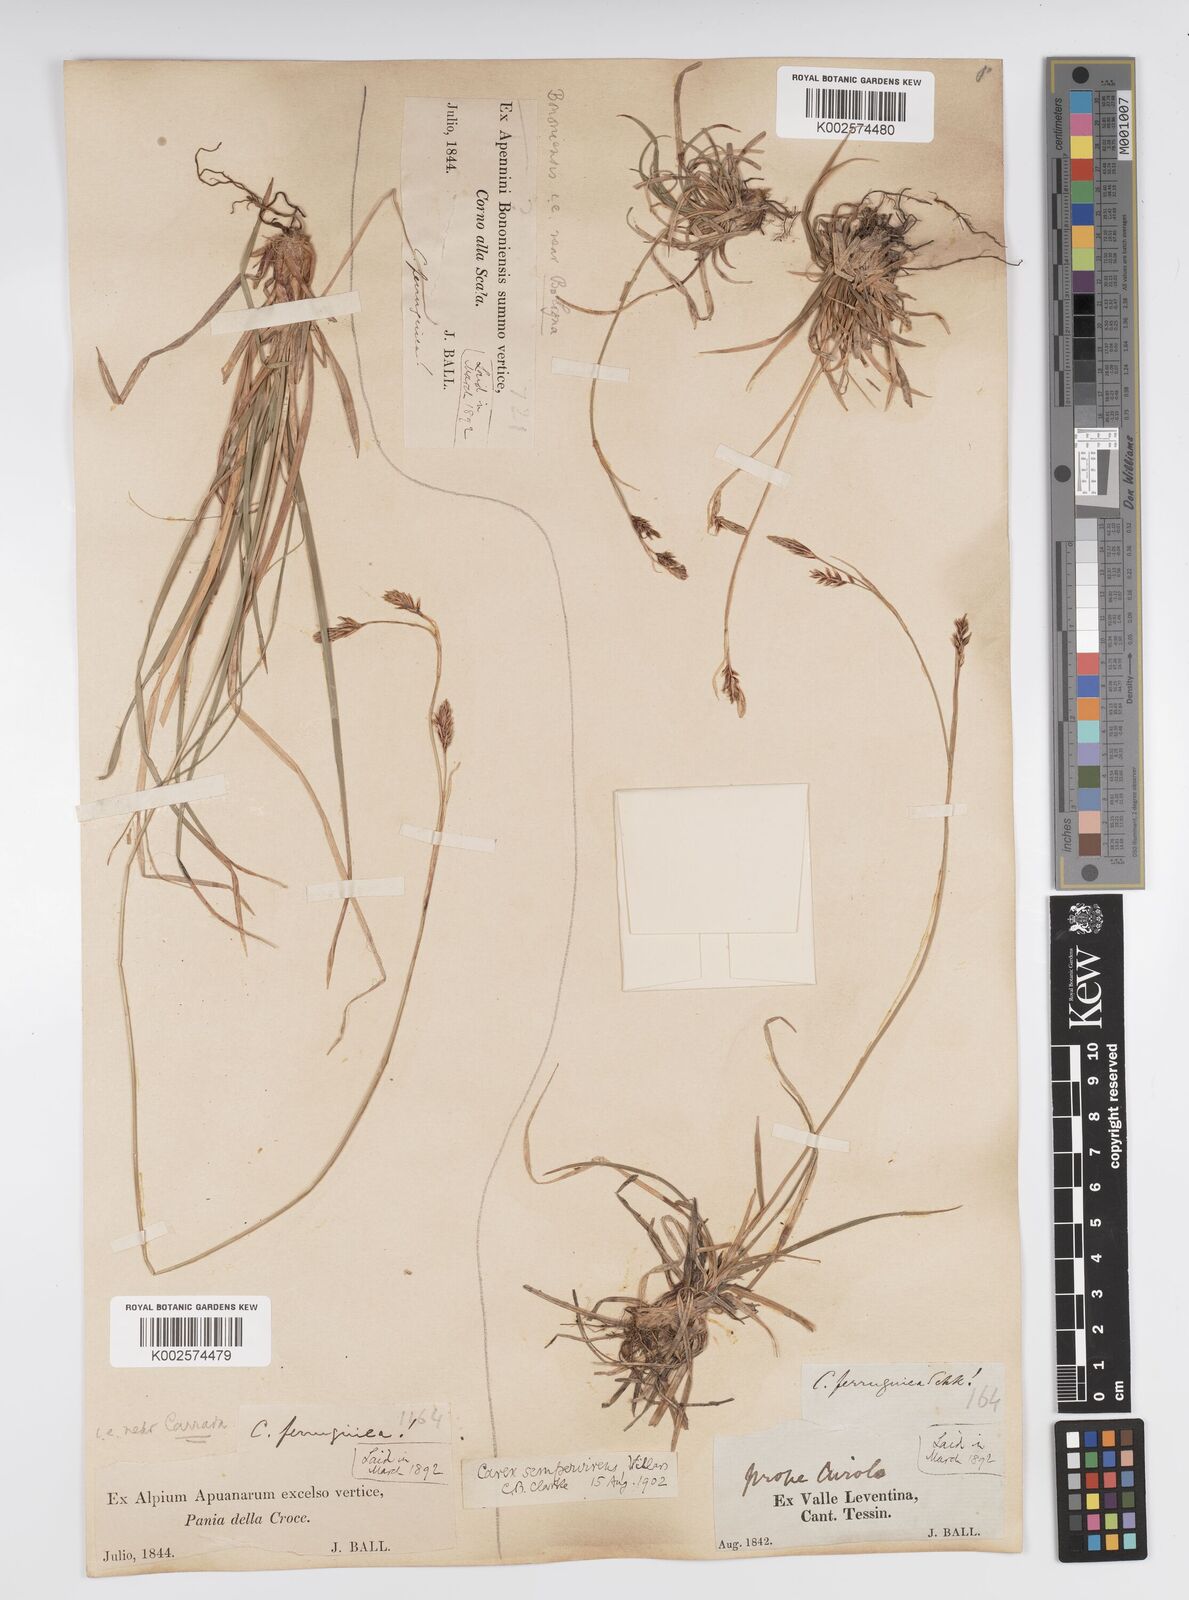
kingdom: Plantae
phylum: Tracheophyta
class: Liliopsida
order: Poales
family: Cyperaceae
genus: Carex
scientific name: Carex sempervirens
